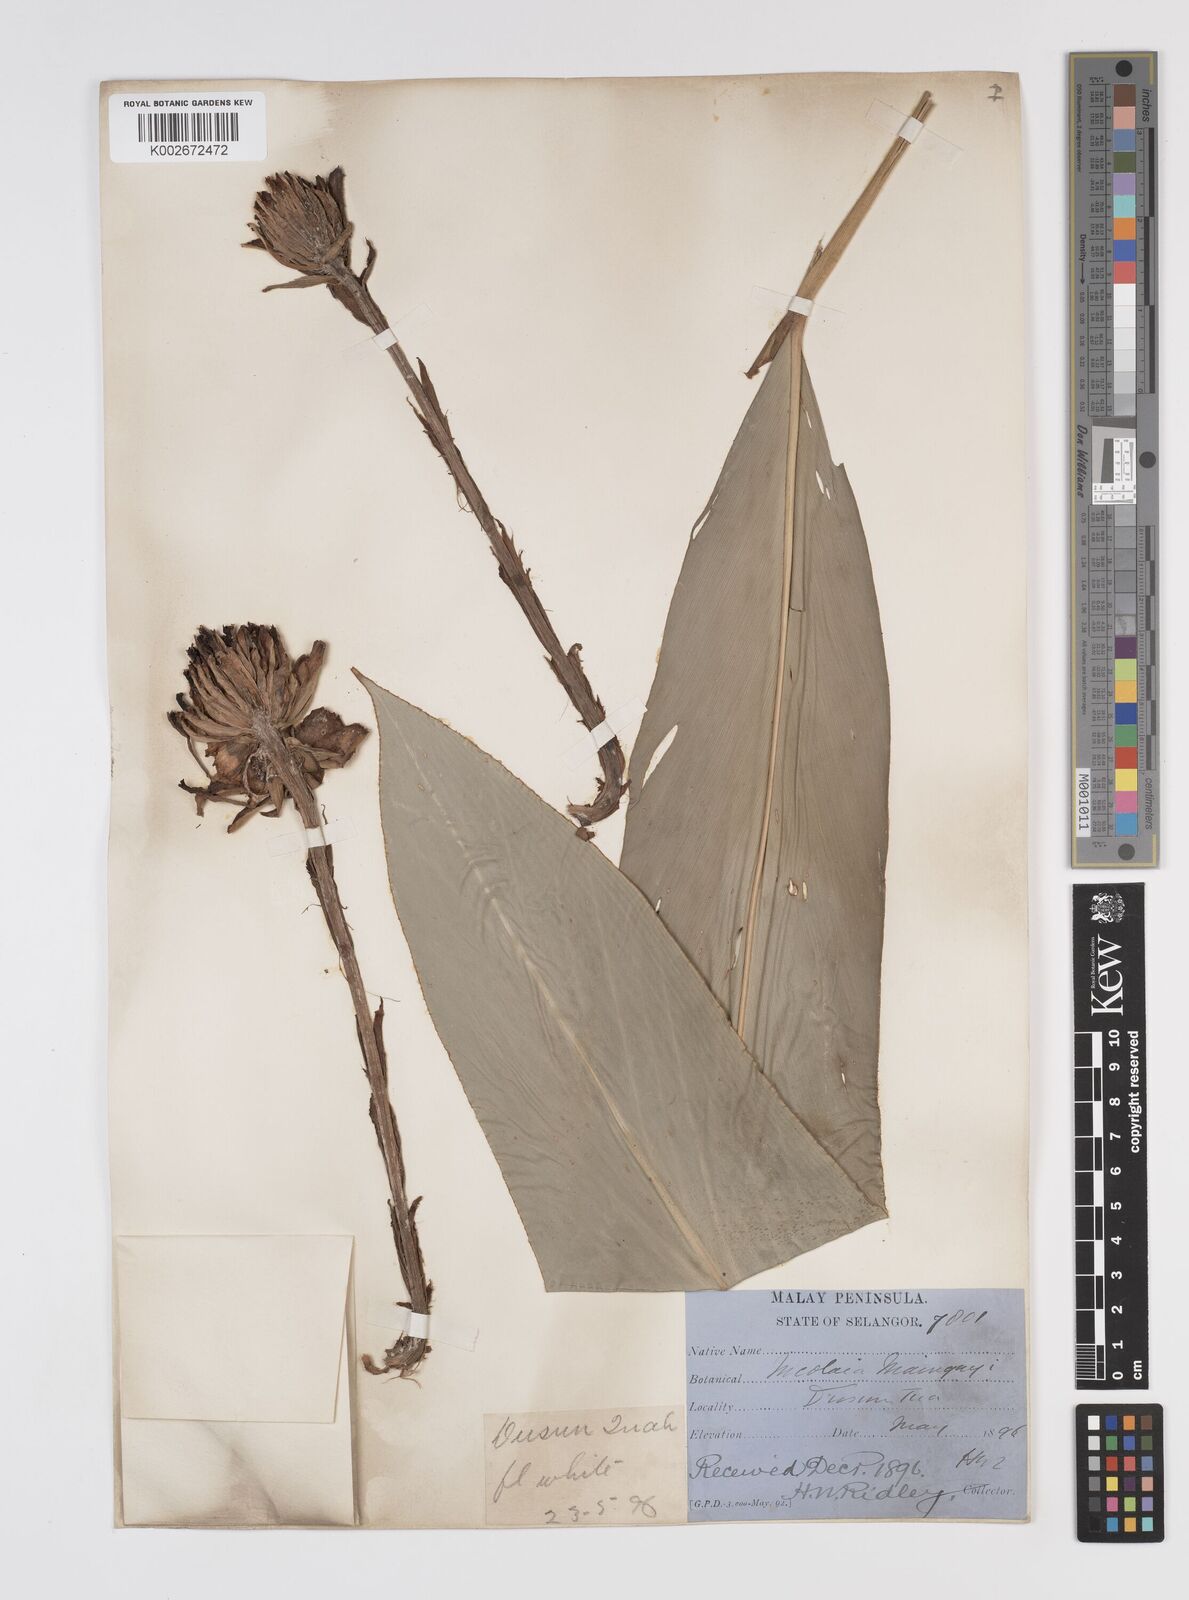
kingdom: Plantae
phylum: Tracheophyta
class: Liliopsida
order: Zingiberales
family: Zingiberaceae
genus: Etlingera
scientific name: Etlingera maingayi
